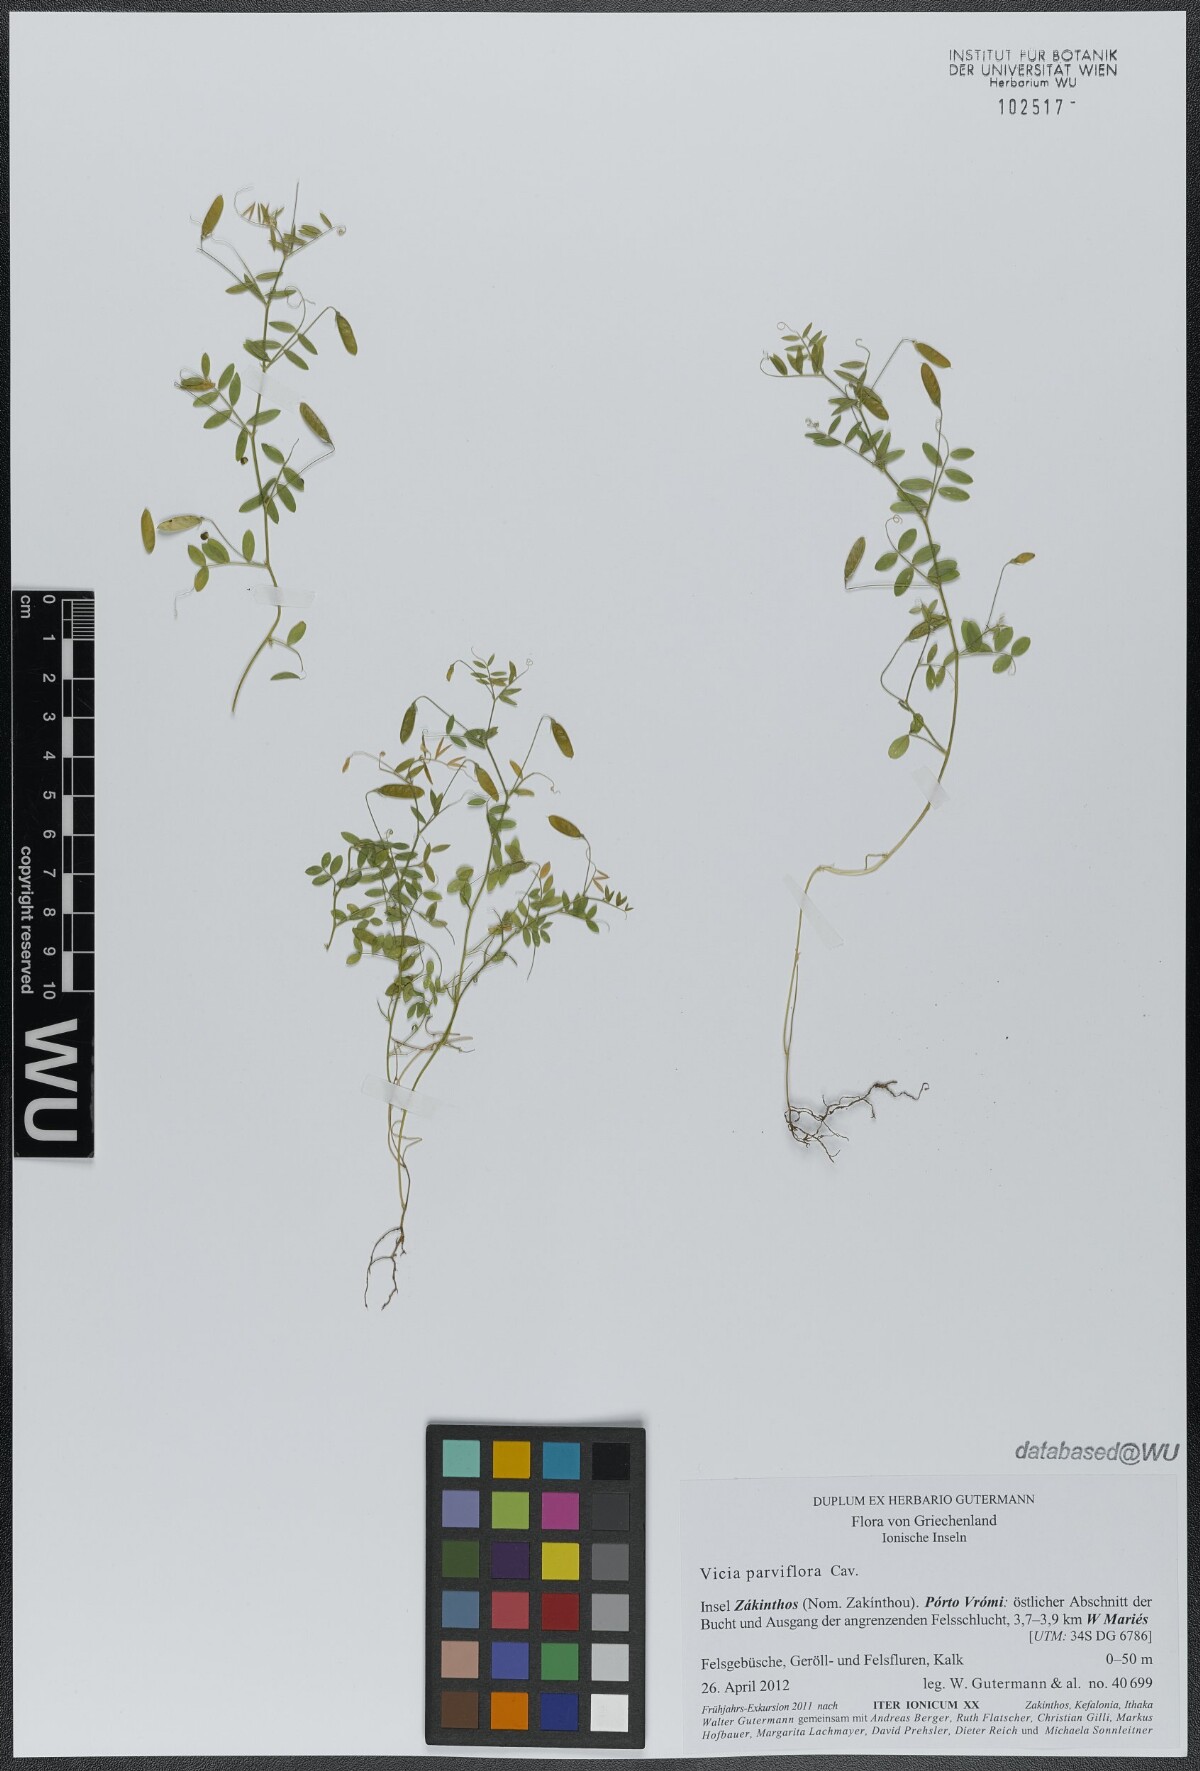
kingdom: Plantae
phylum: Tracheophyta
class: Magnoliopsida
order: Fabales
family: Fabaceae
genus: Vicia
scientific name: Vicia parviflora
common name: Slender tare
